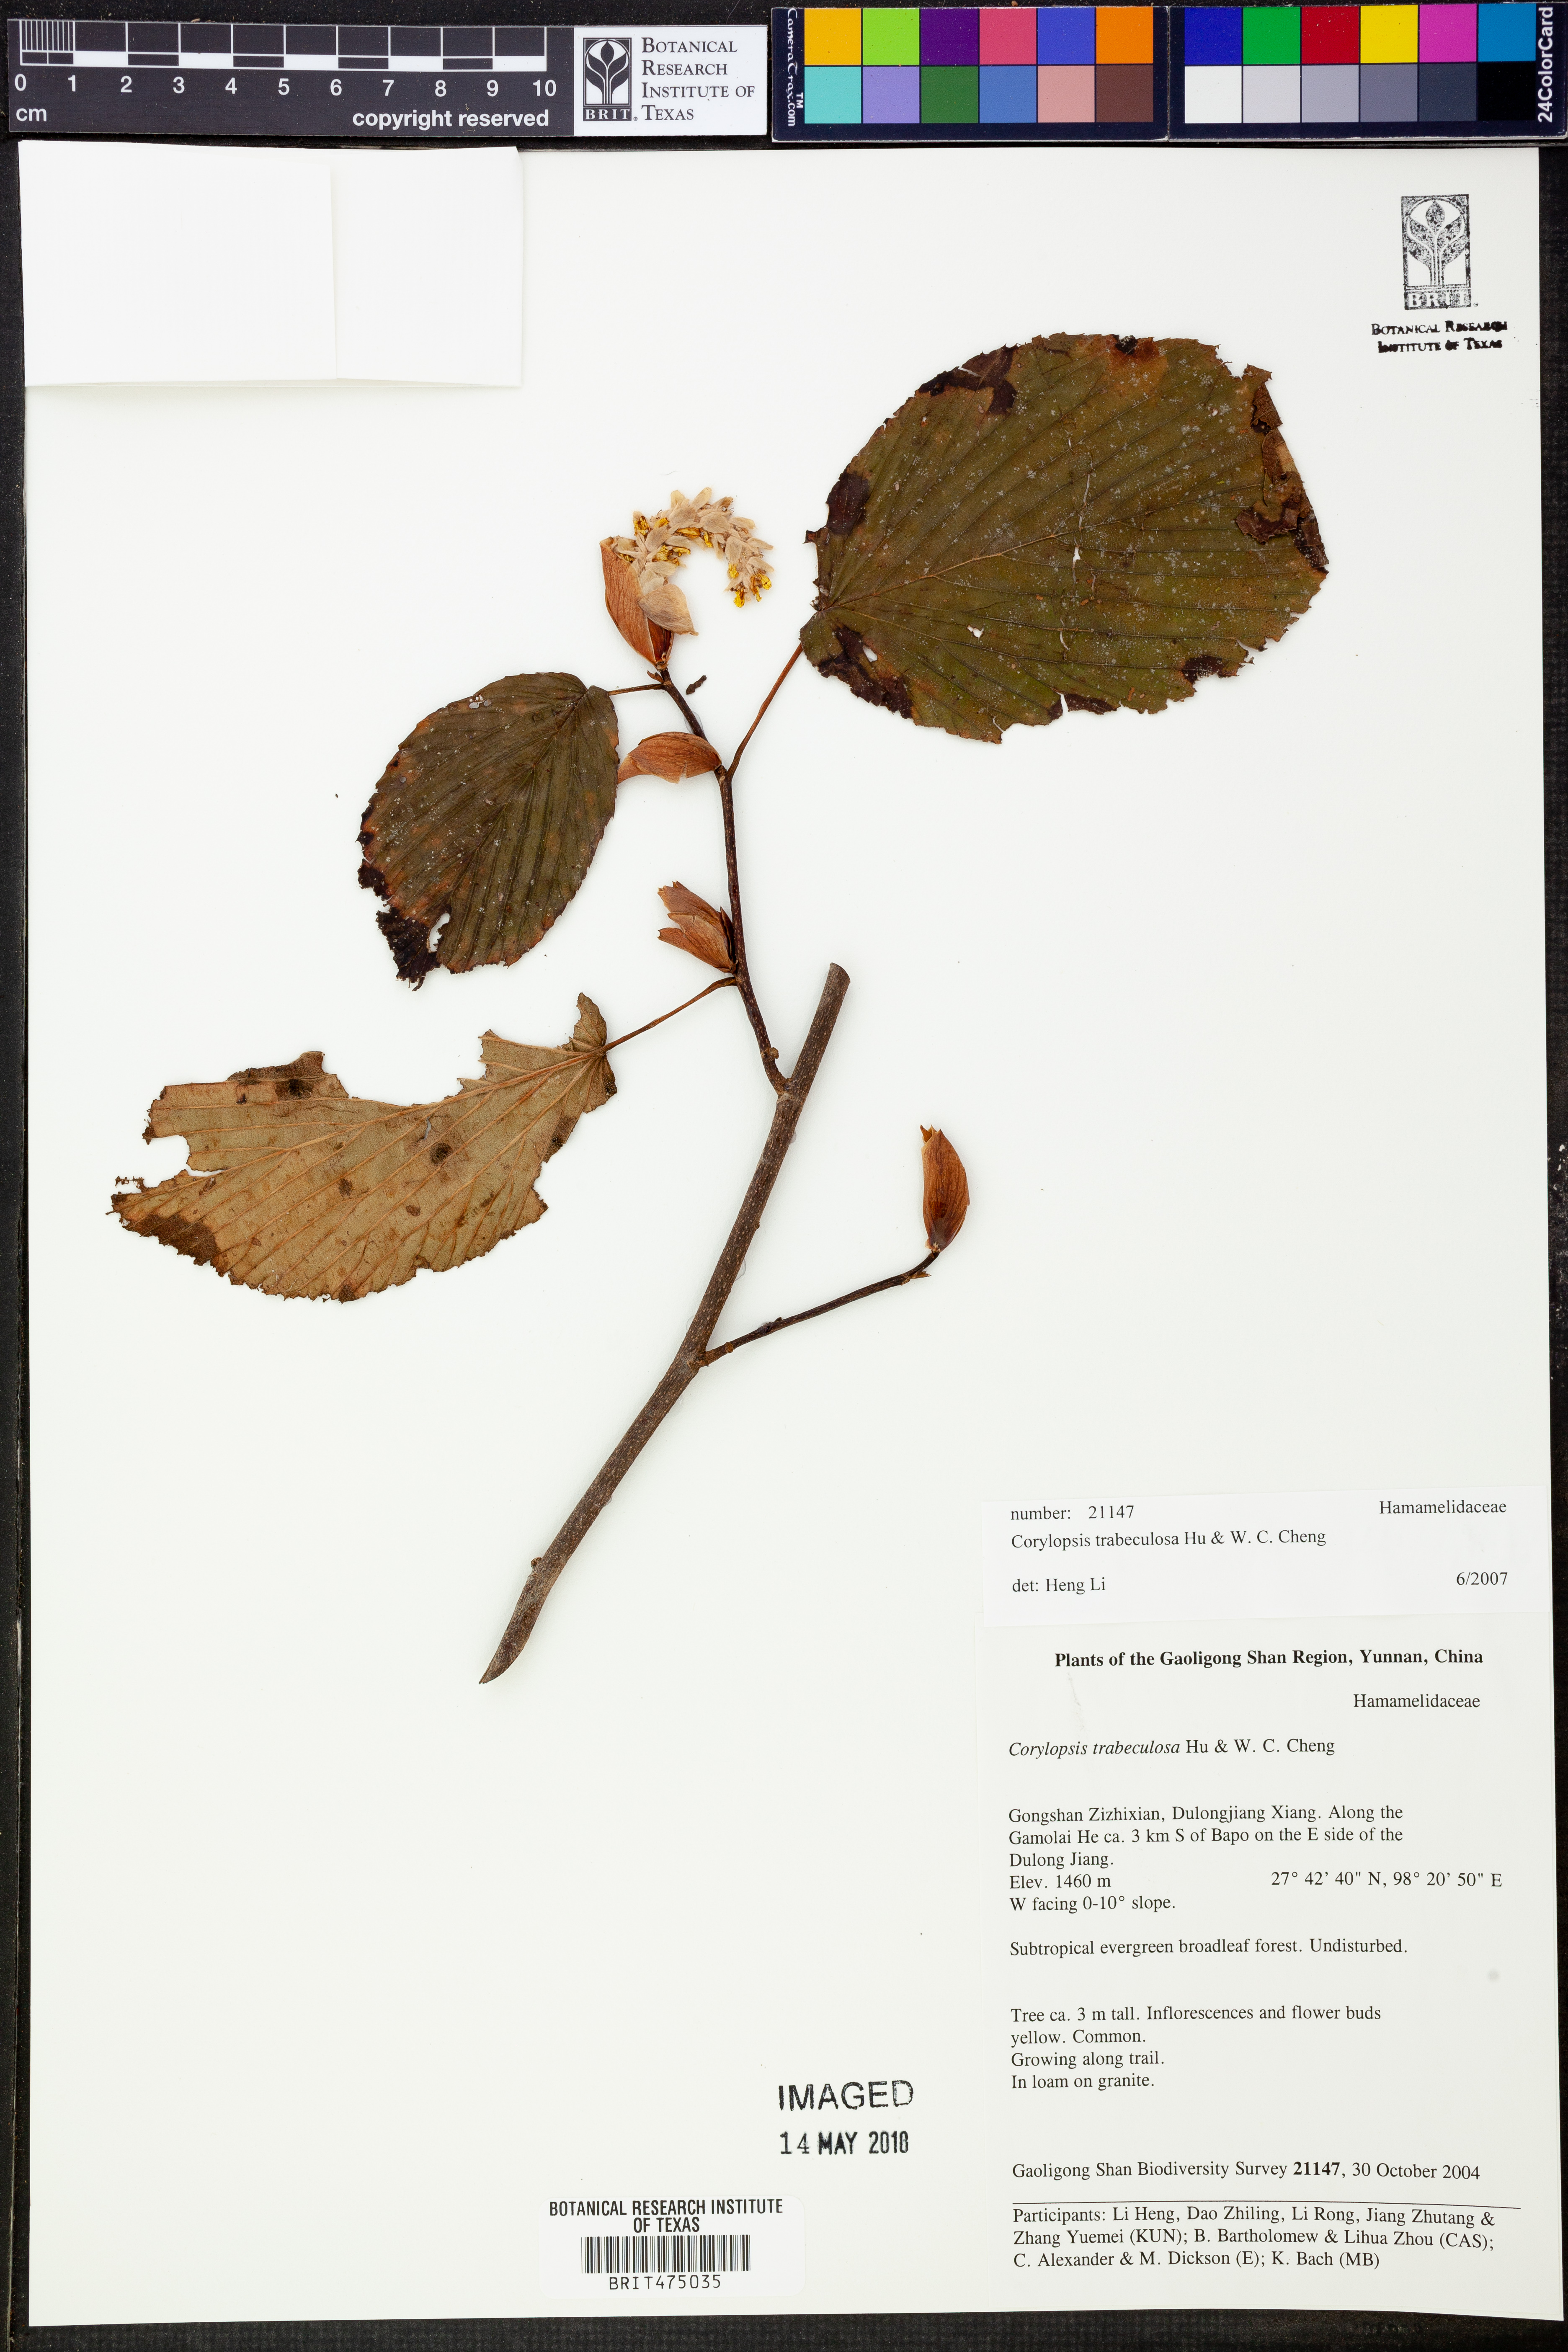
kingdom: Plantae
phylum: Tracheophyta
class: Magnoliopsida
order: Saxifragales
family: Hamamelidaceae
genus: Corylopsis
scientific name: Corylopsis trabeculosa
